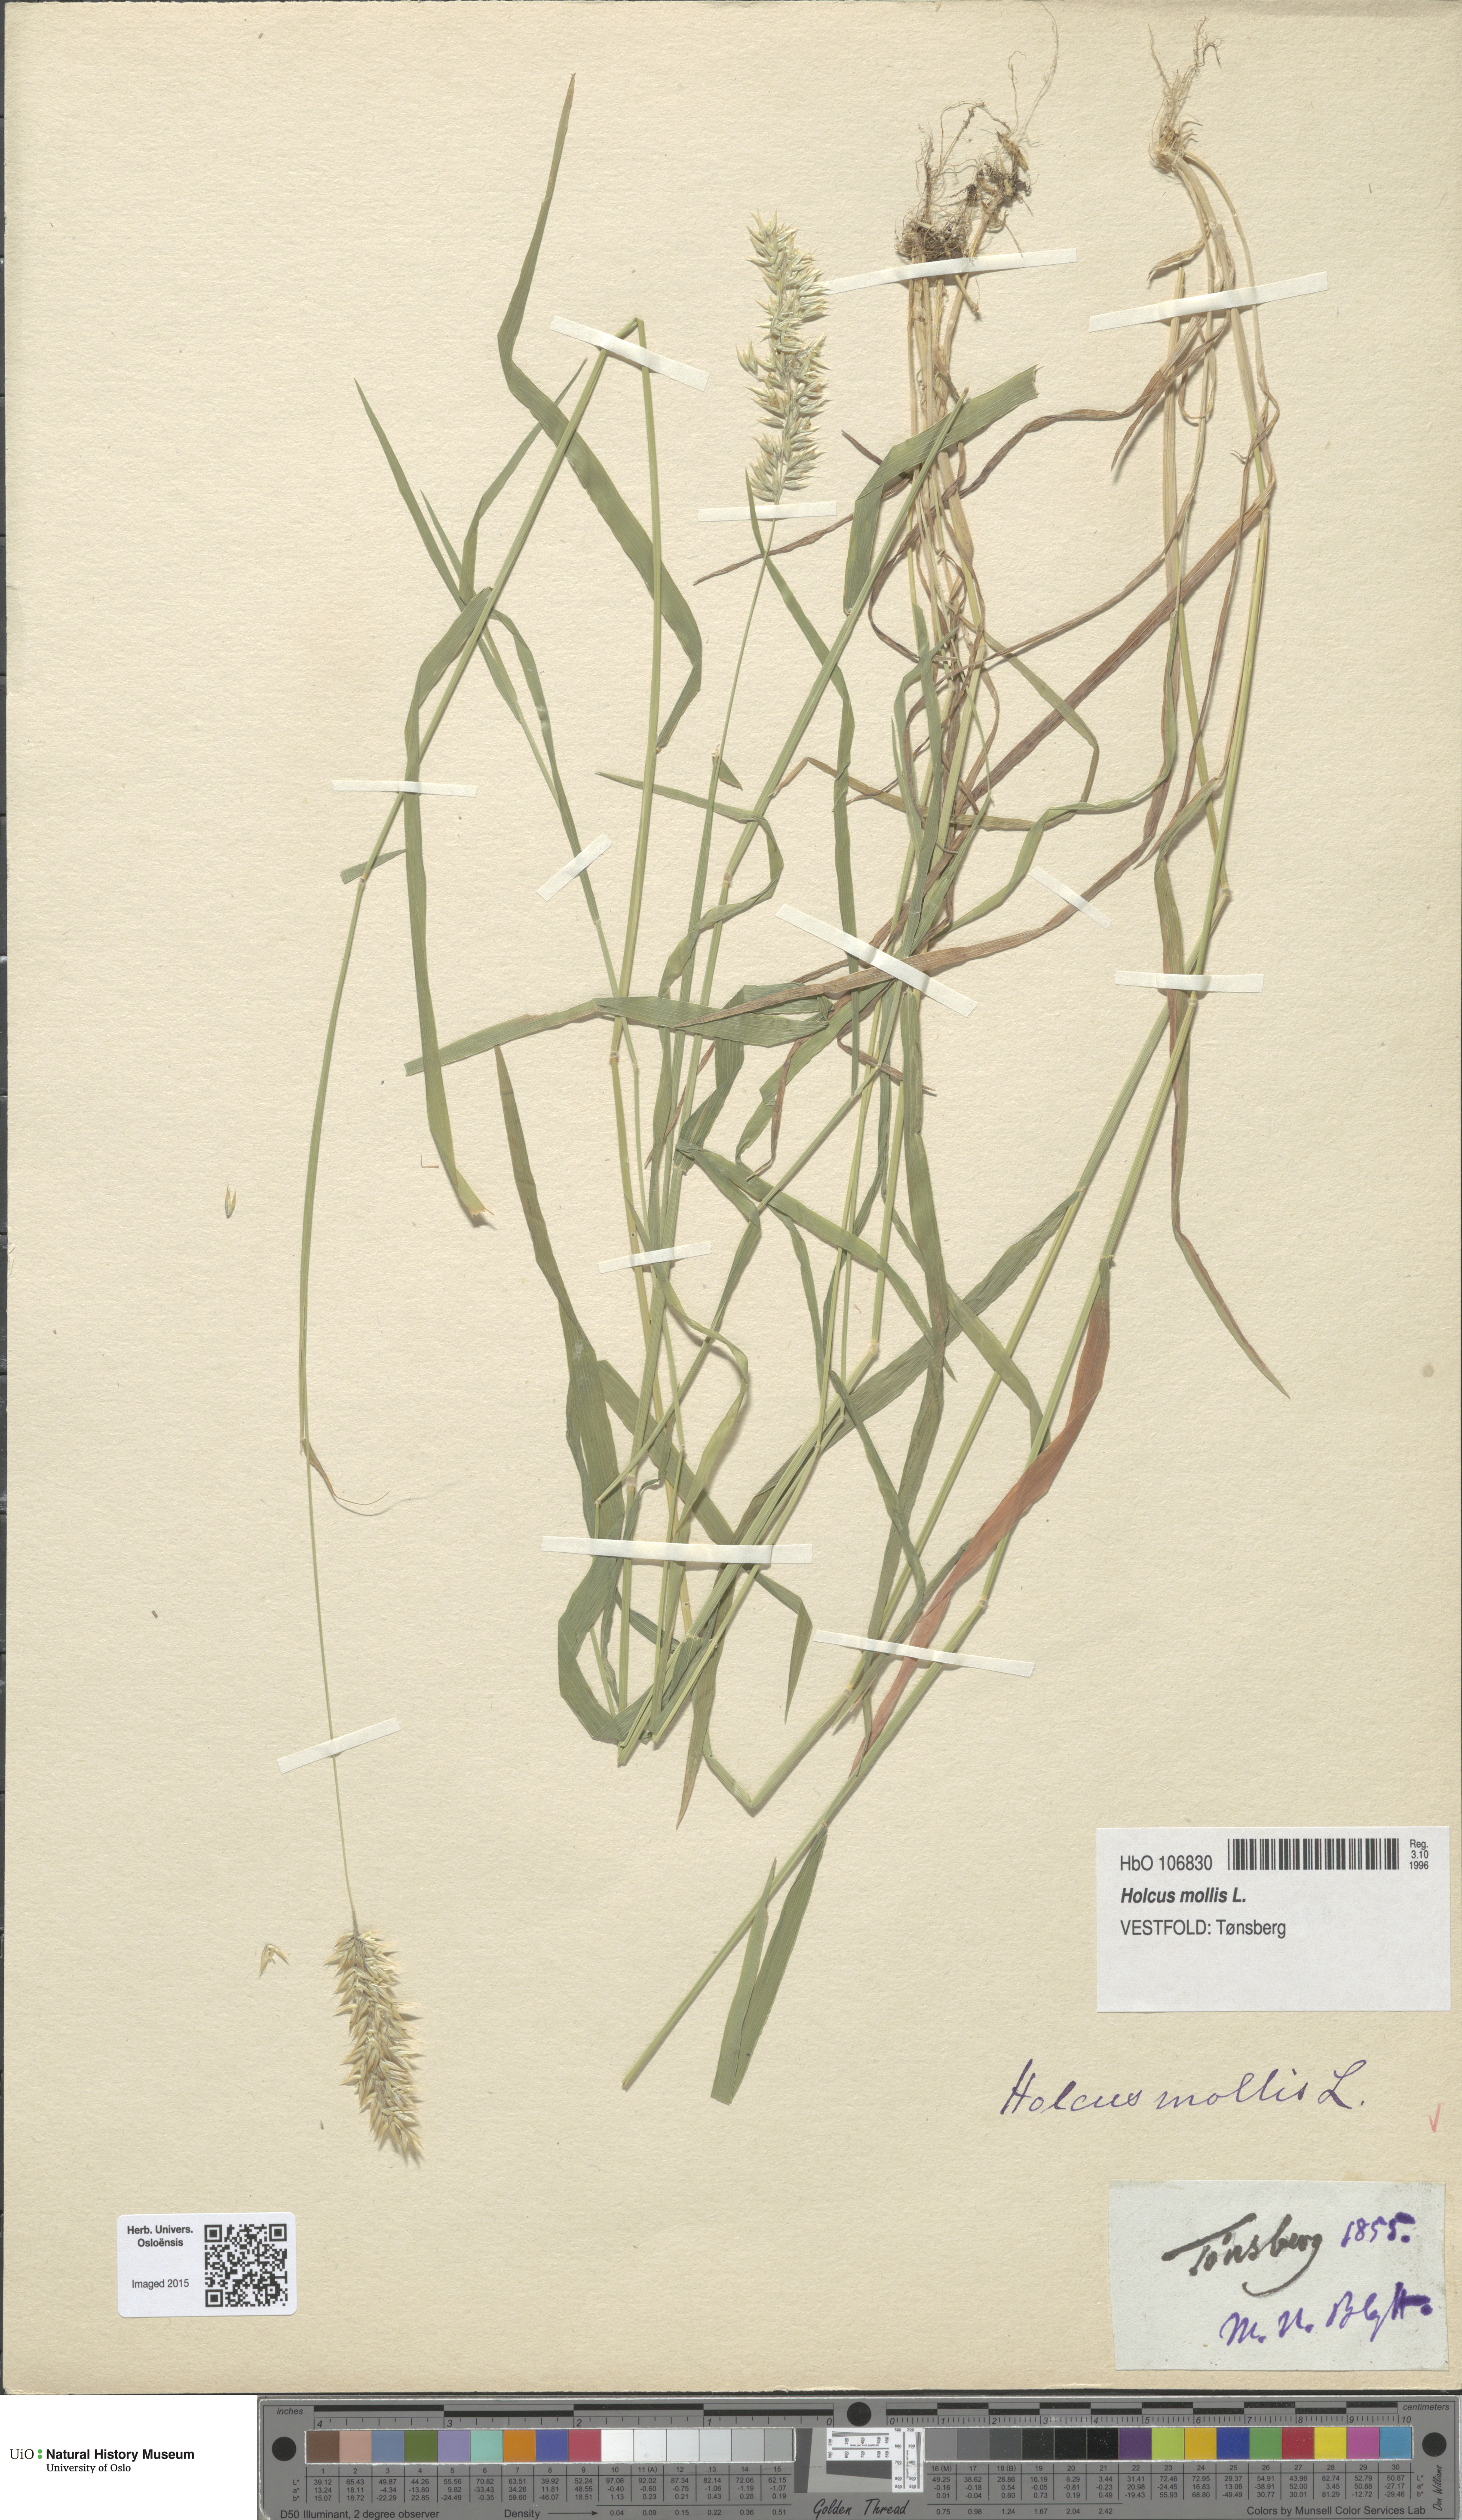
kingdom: Plantae
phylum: Tracheophyta
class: Liliopsida
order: Poales
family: Poaceae
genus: Holcus
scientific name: Holcus mollis
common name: Creeping velvetgrass
